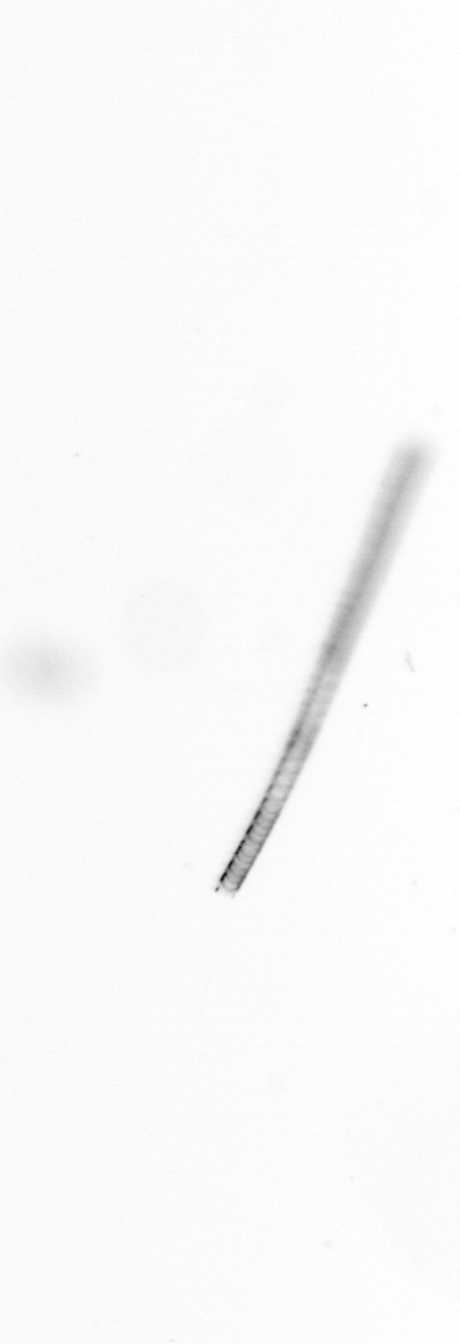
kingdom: Chromista
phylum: Ochrophyta
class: Bacillariophyceae
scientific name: Bacillariophyceae
